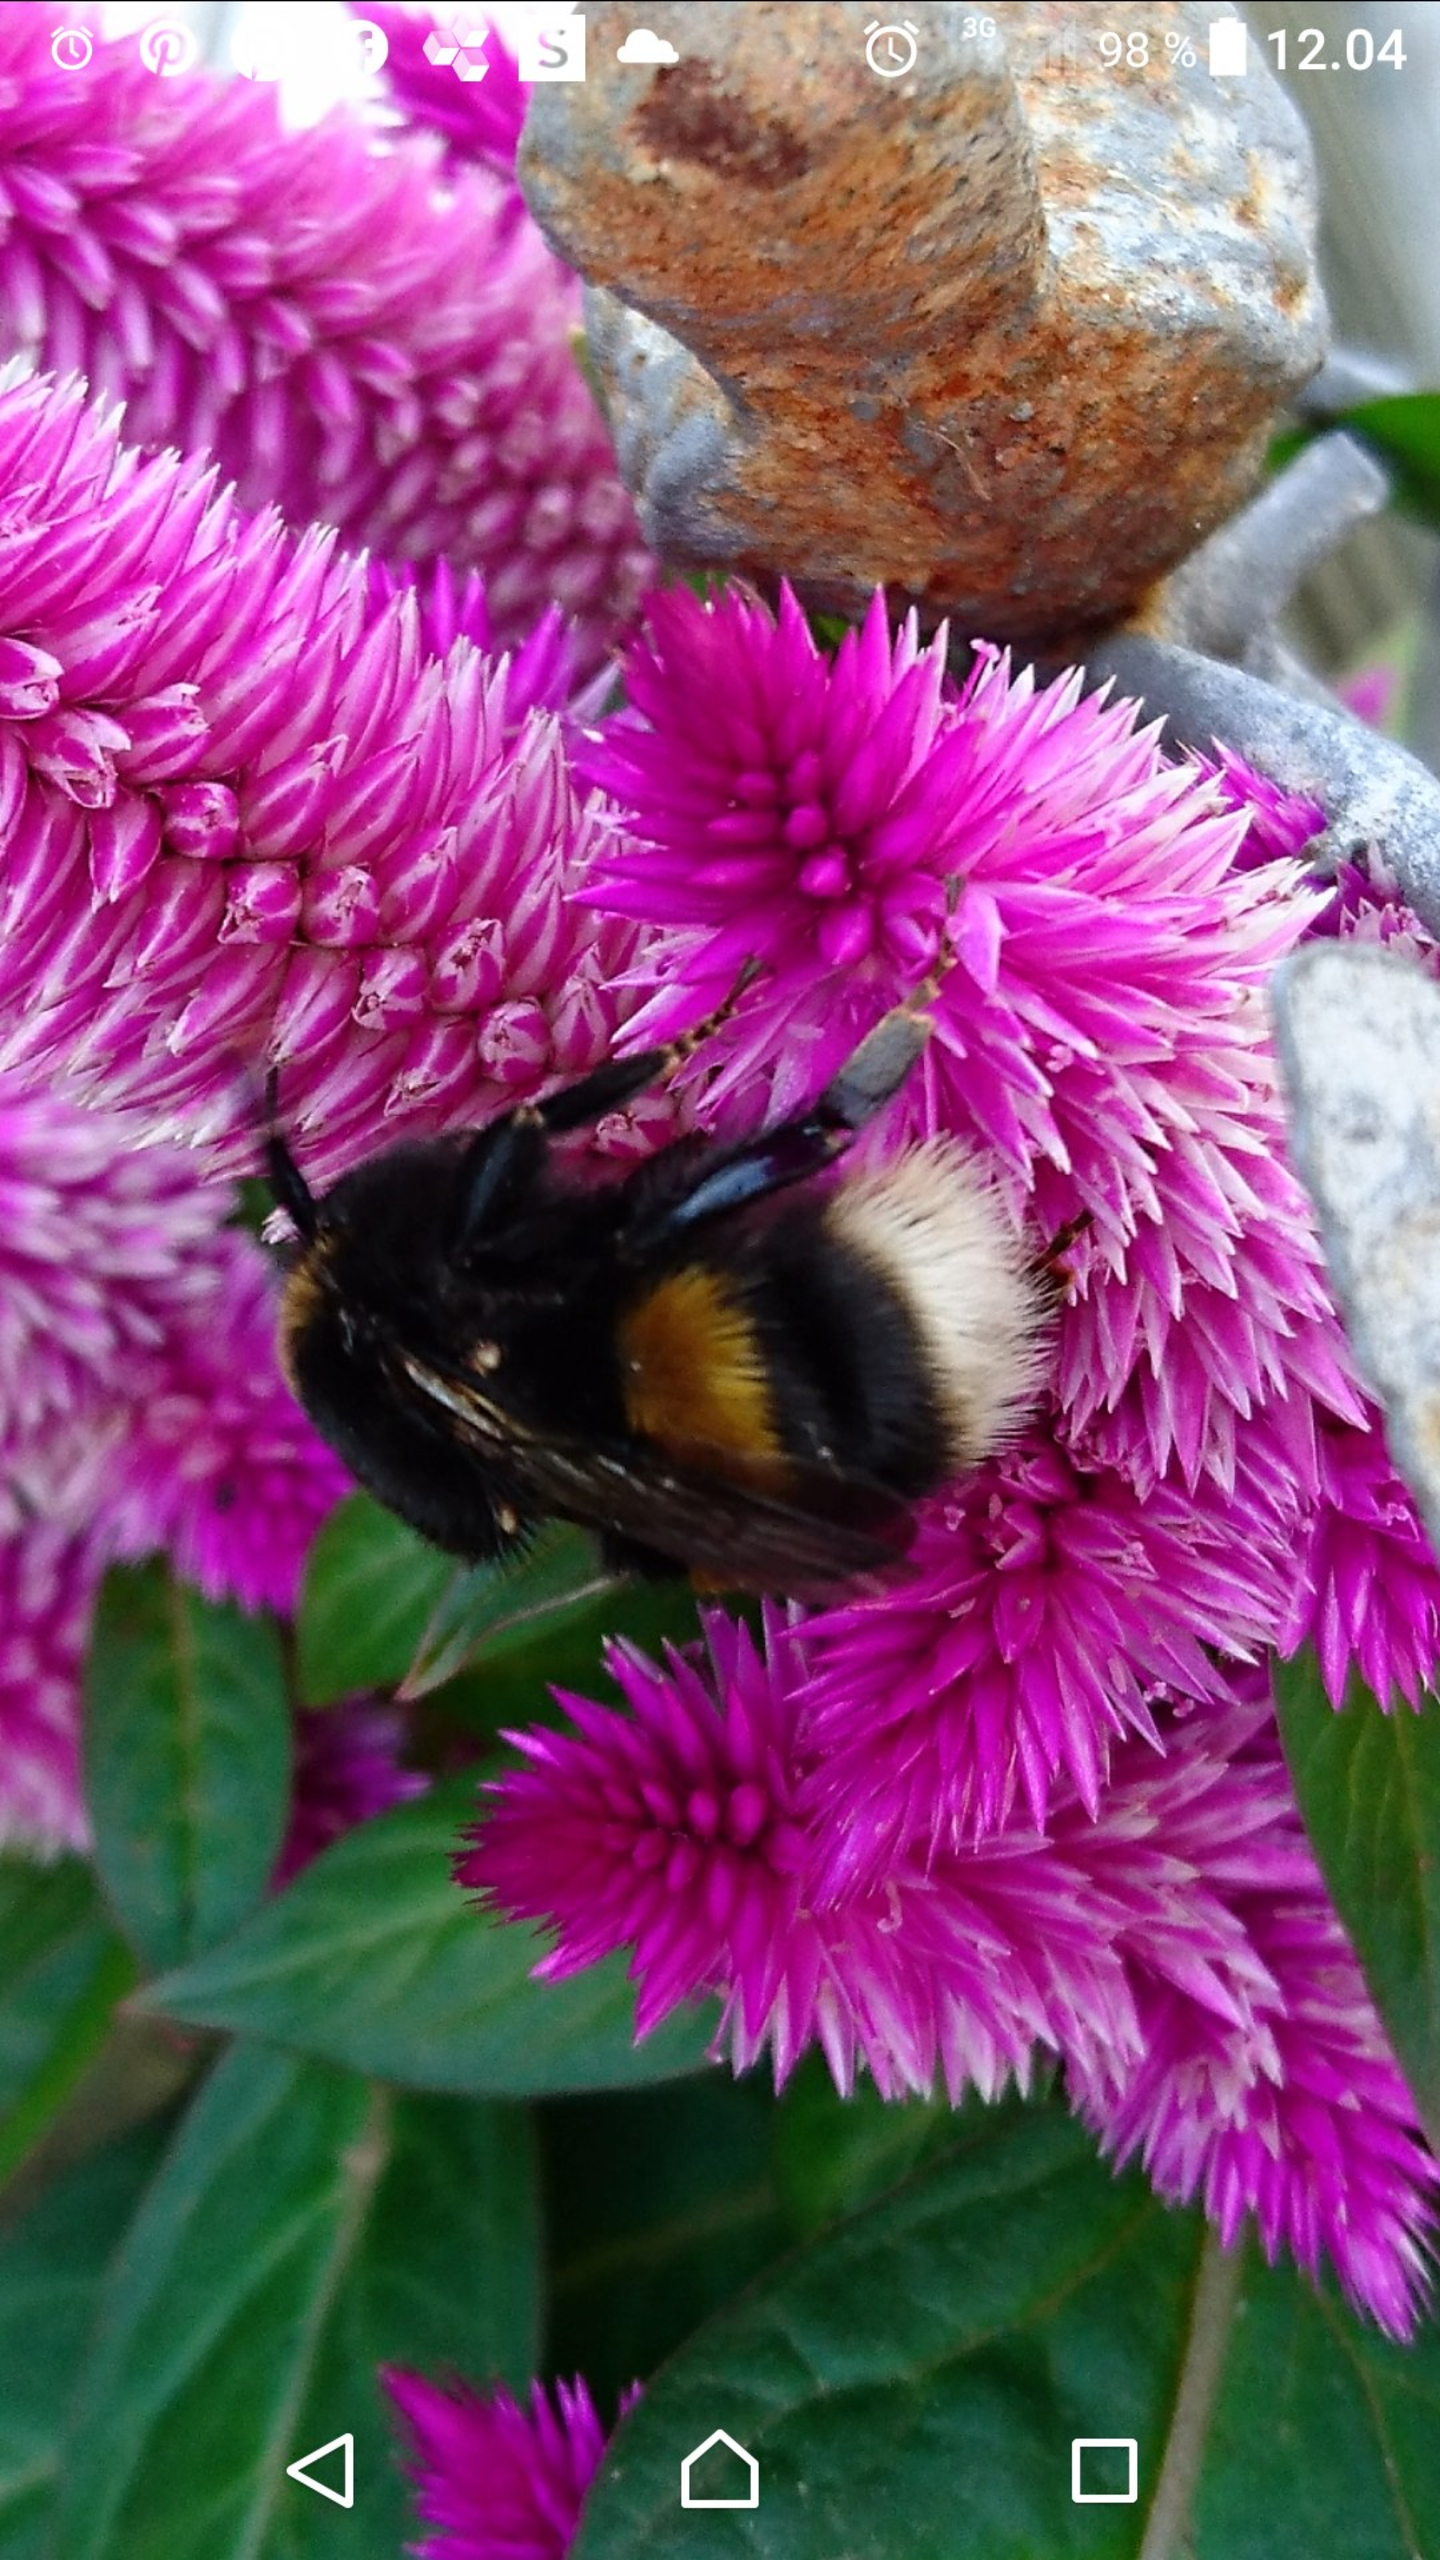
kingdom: Animalia
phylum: Arthropoda
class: Insecta
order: Hymenoptera
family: Apidae
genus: Bombus
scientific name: Bombus
